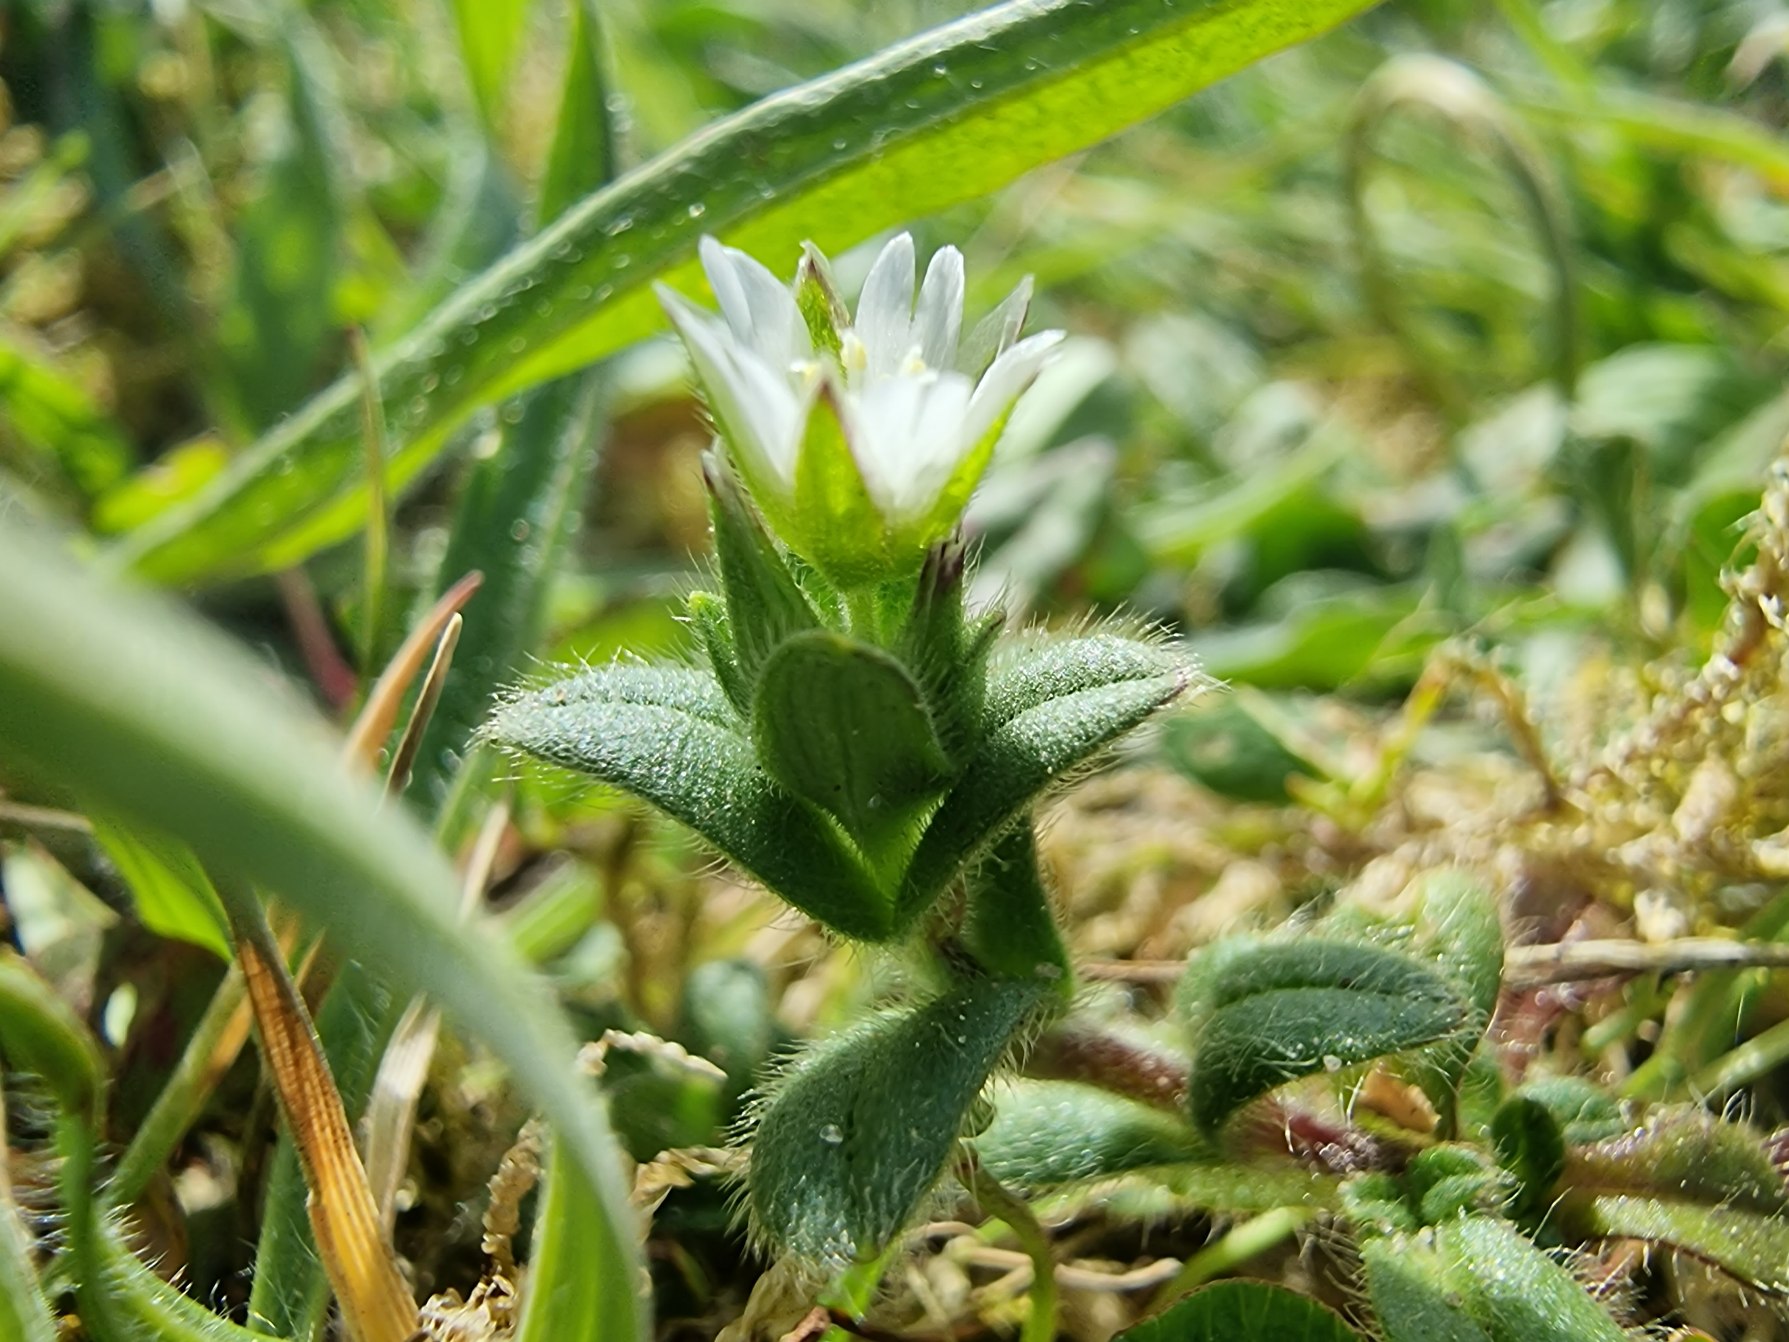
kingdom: Plantae
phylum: Tracheophyta
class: Magnoliopsida
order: Caryophyllales
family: Caryophyllaceae
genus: Cerastium
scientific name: Cerastium fontanum
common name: Almindelig hønsetarm
